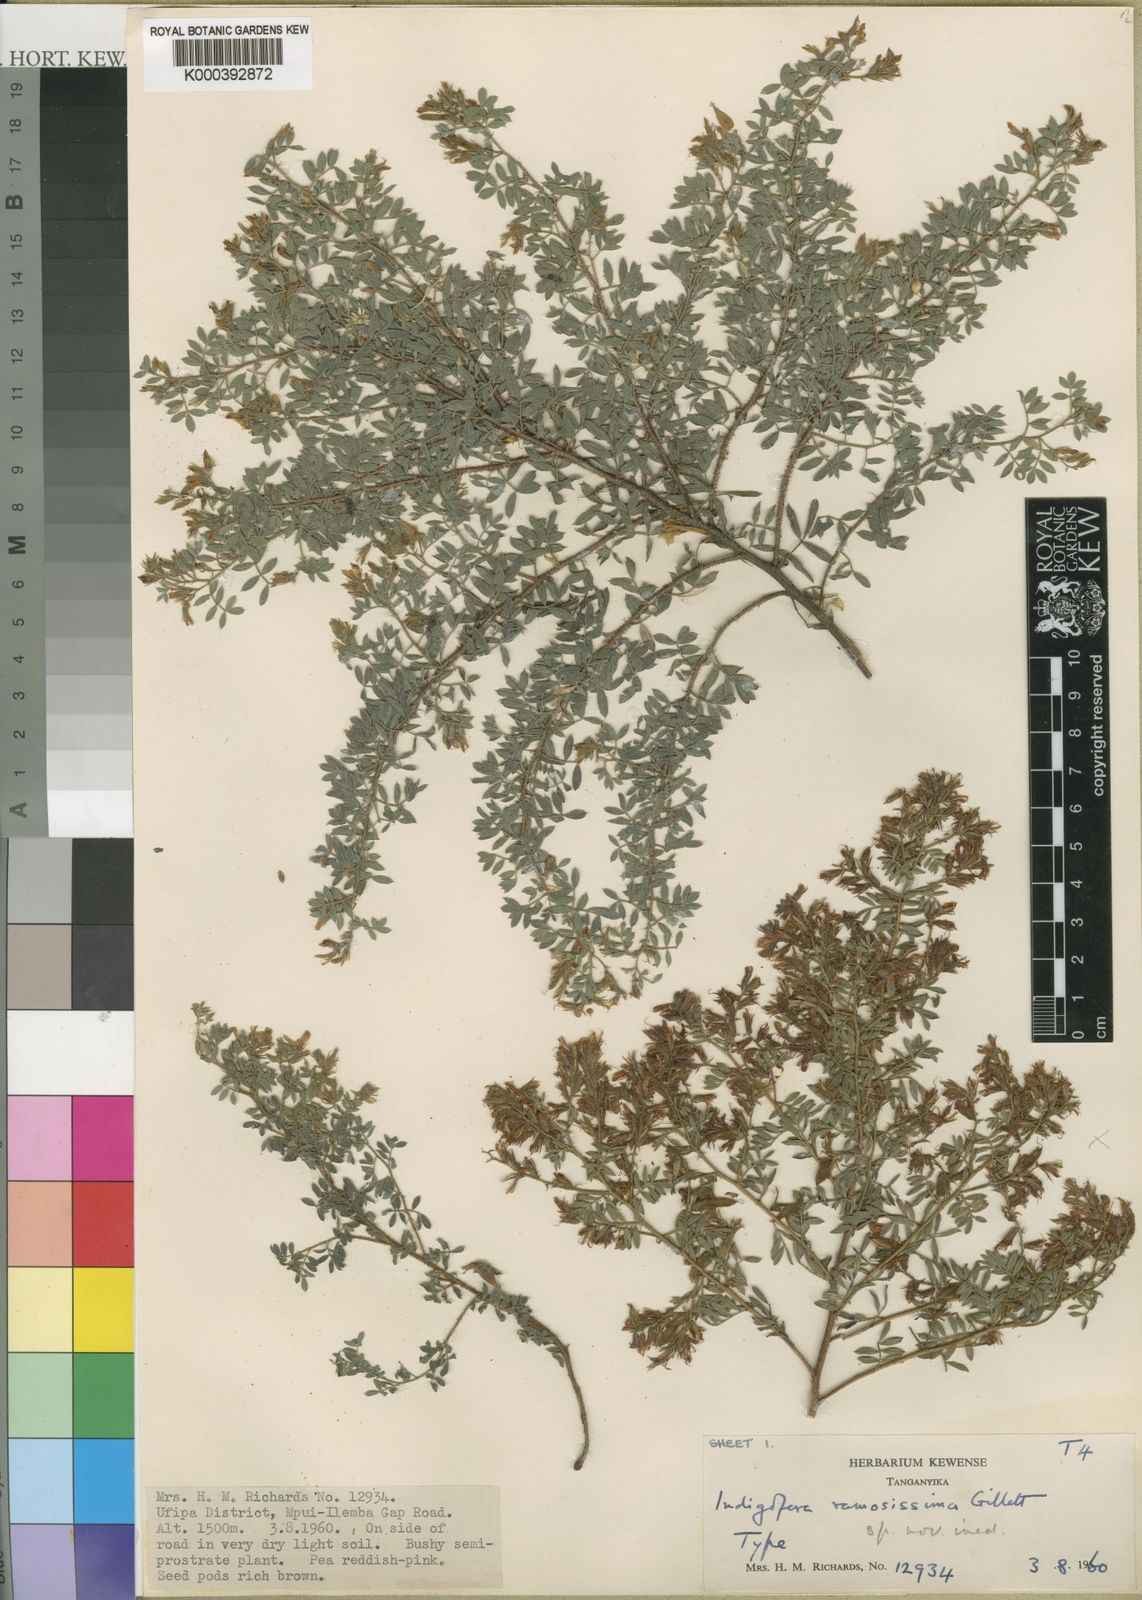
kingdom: Plantae
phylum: Tracheophyta
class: Magnoliopsida
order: Fabales
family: Fabaceae
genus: Indigofera
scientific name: Indigofera microscypha
